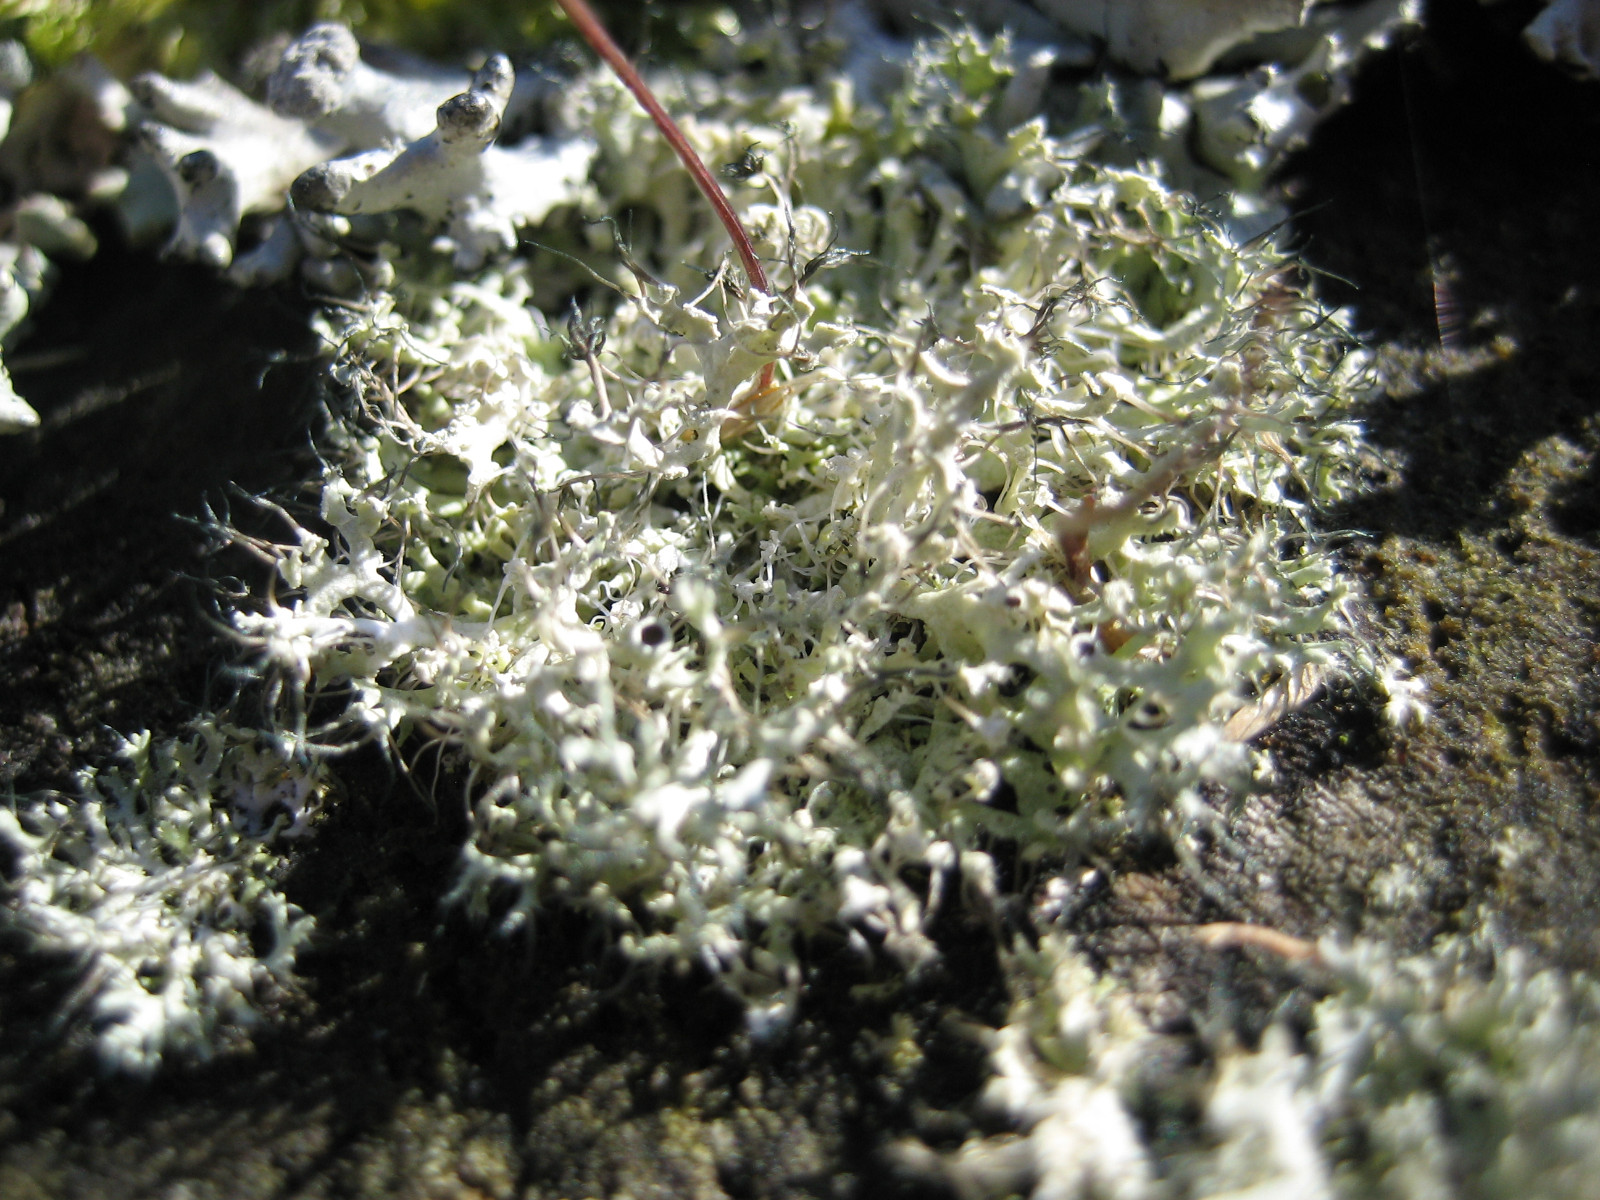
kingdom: Fungi
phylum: Ascomycota
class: Lecanoromycetes
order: Caliciales
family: Physciaceae
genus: Physcia
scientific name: Physcia tenella
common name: spæd rosetlav
